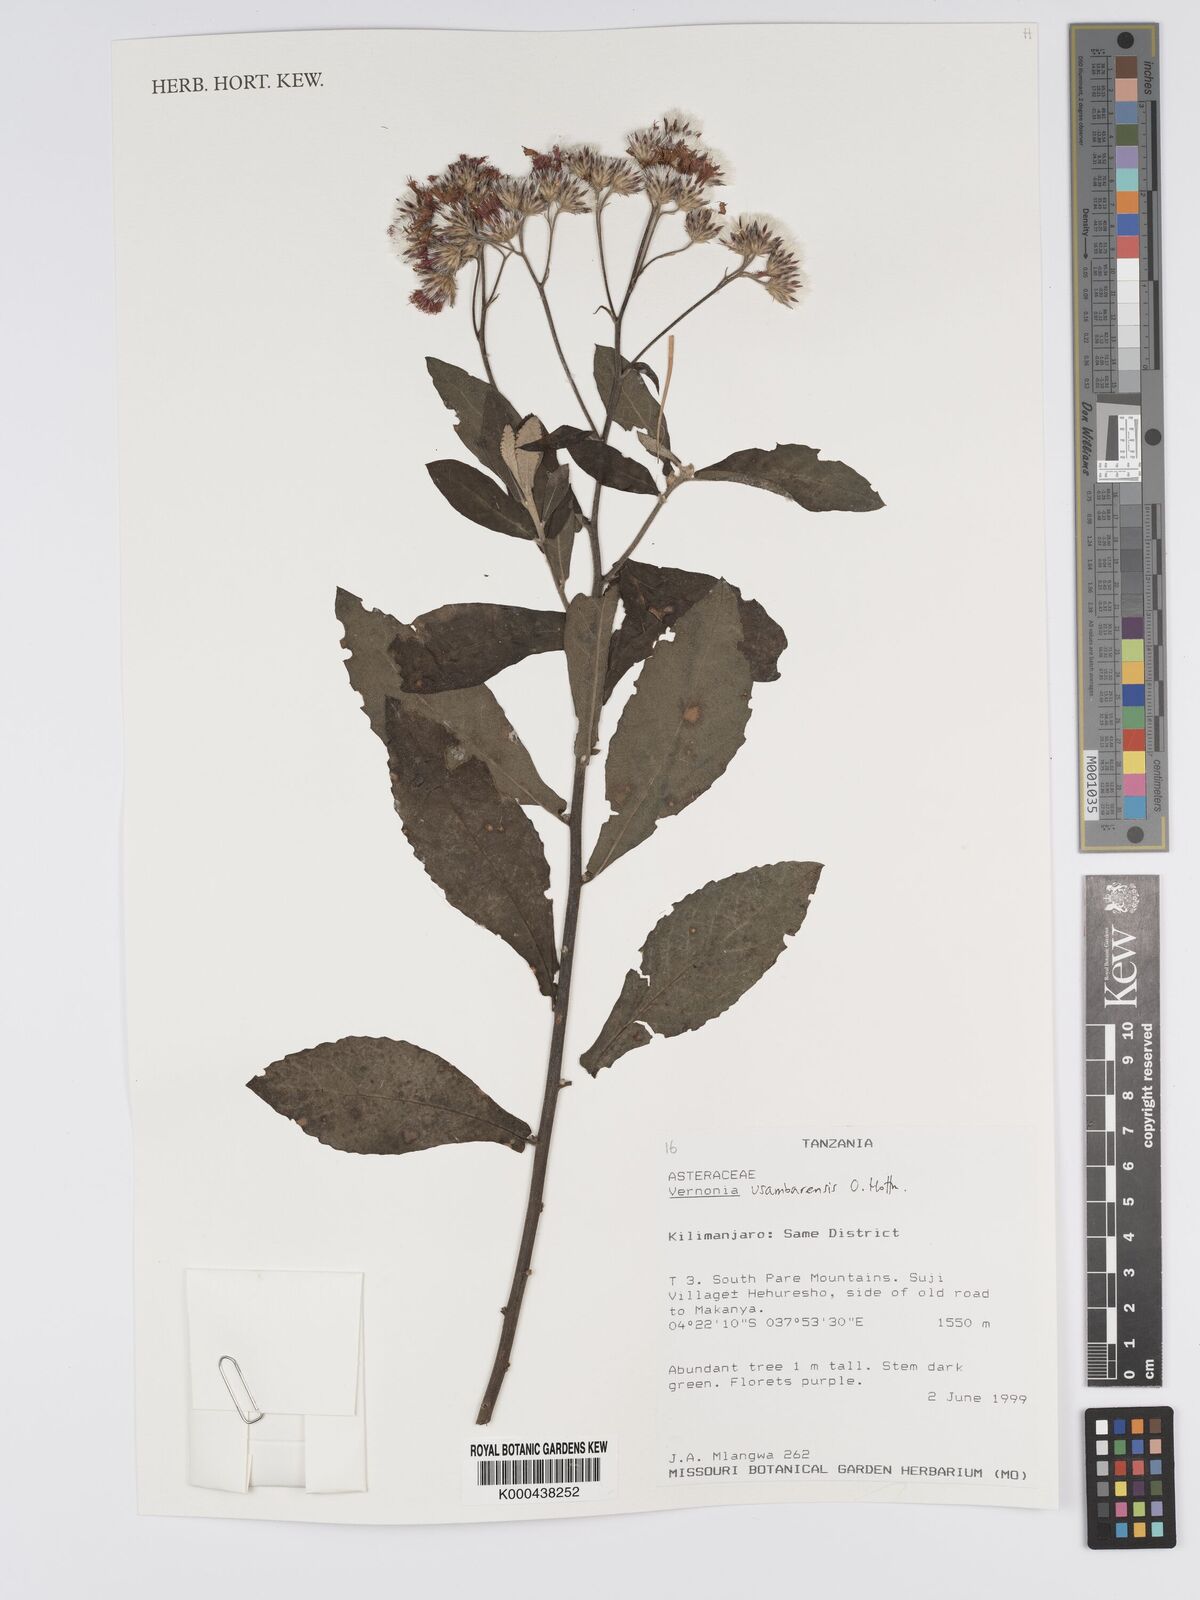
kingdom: Plantae
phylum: Tracheophyta
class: Magnoliopsida
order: Asterales
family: Asteraceae
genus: Jeffreycia
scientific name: Jeffreycia usambarensis
